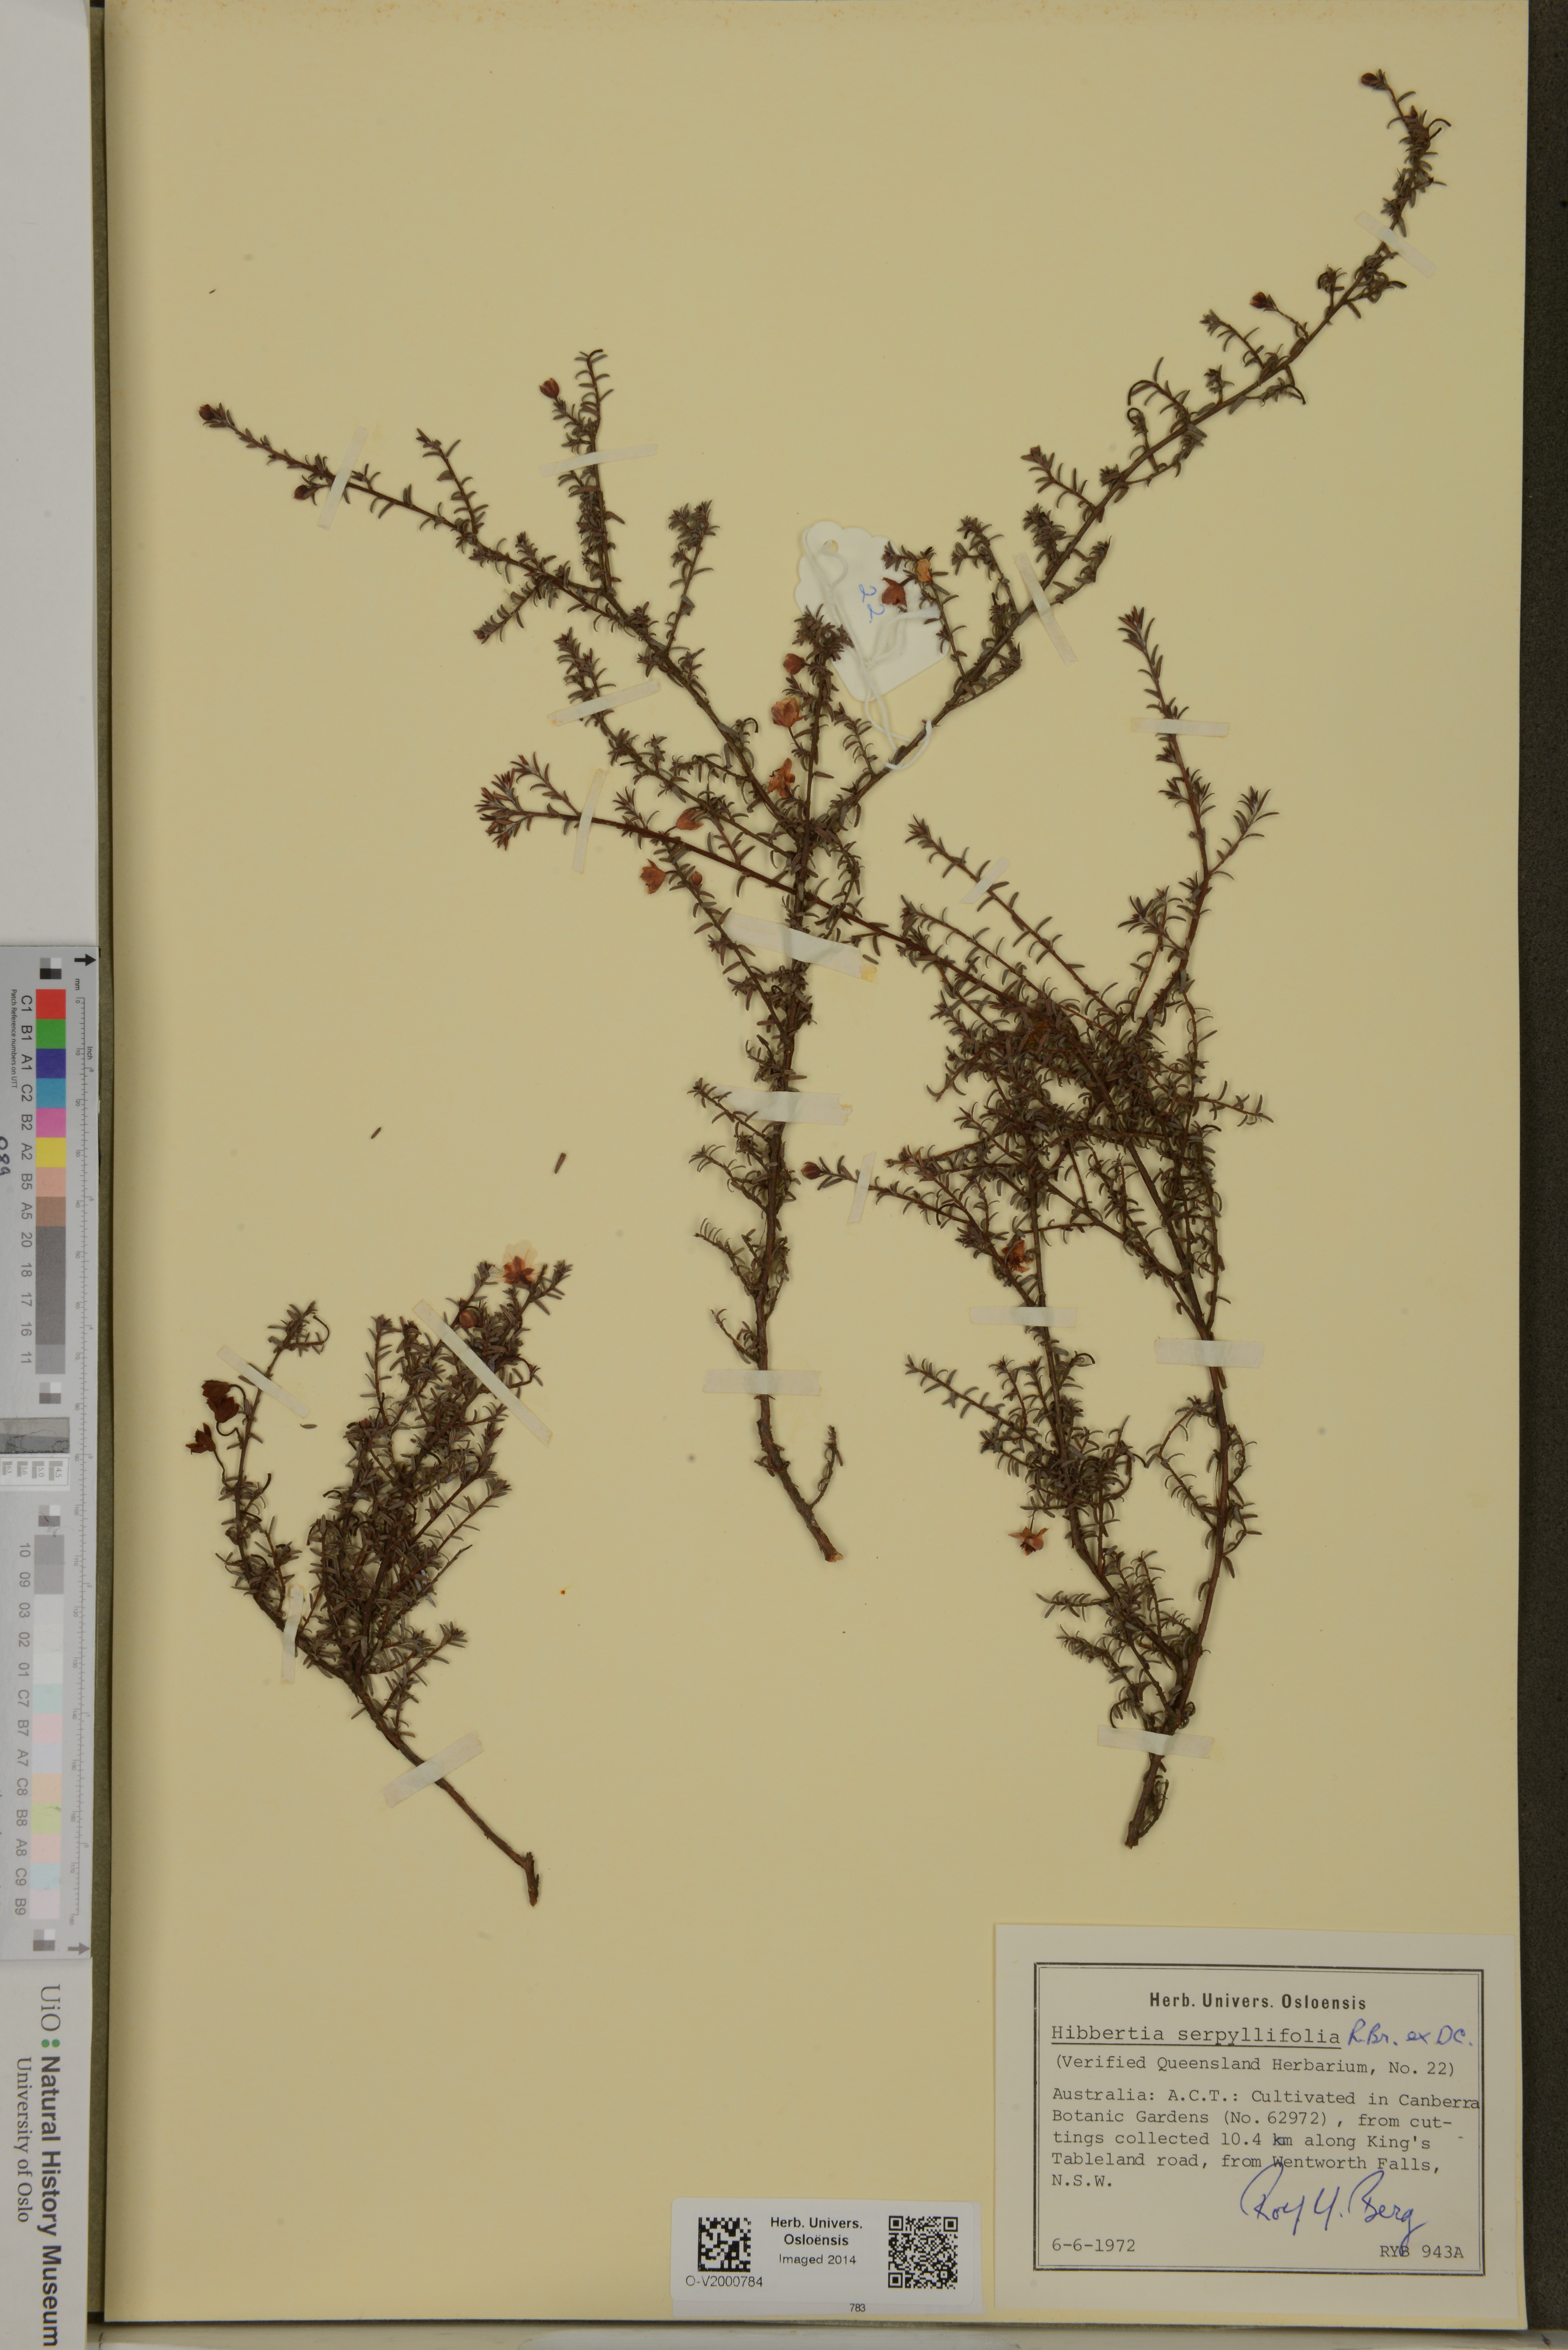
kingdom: Plantae
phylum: Tracheophyta
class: Magnoliopsida
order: Dilleniales
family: Dilleniaceae
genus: Hibbertia
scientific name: Hibbertia serpyllifolia
